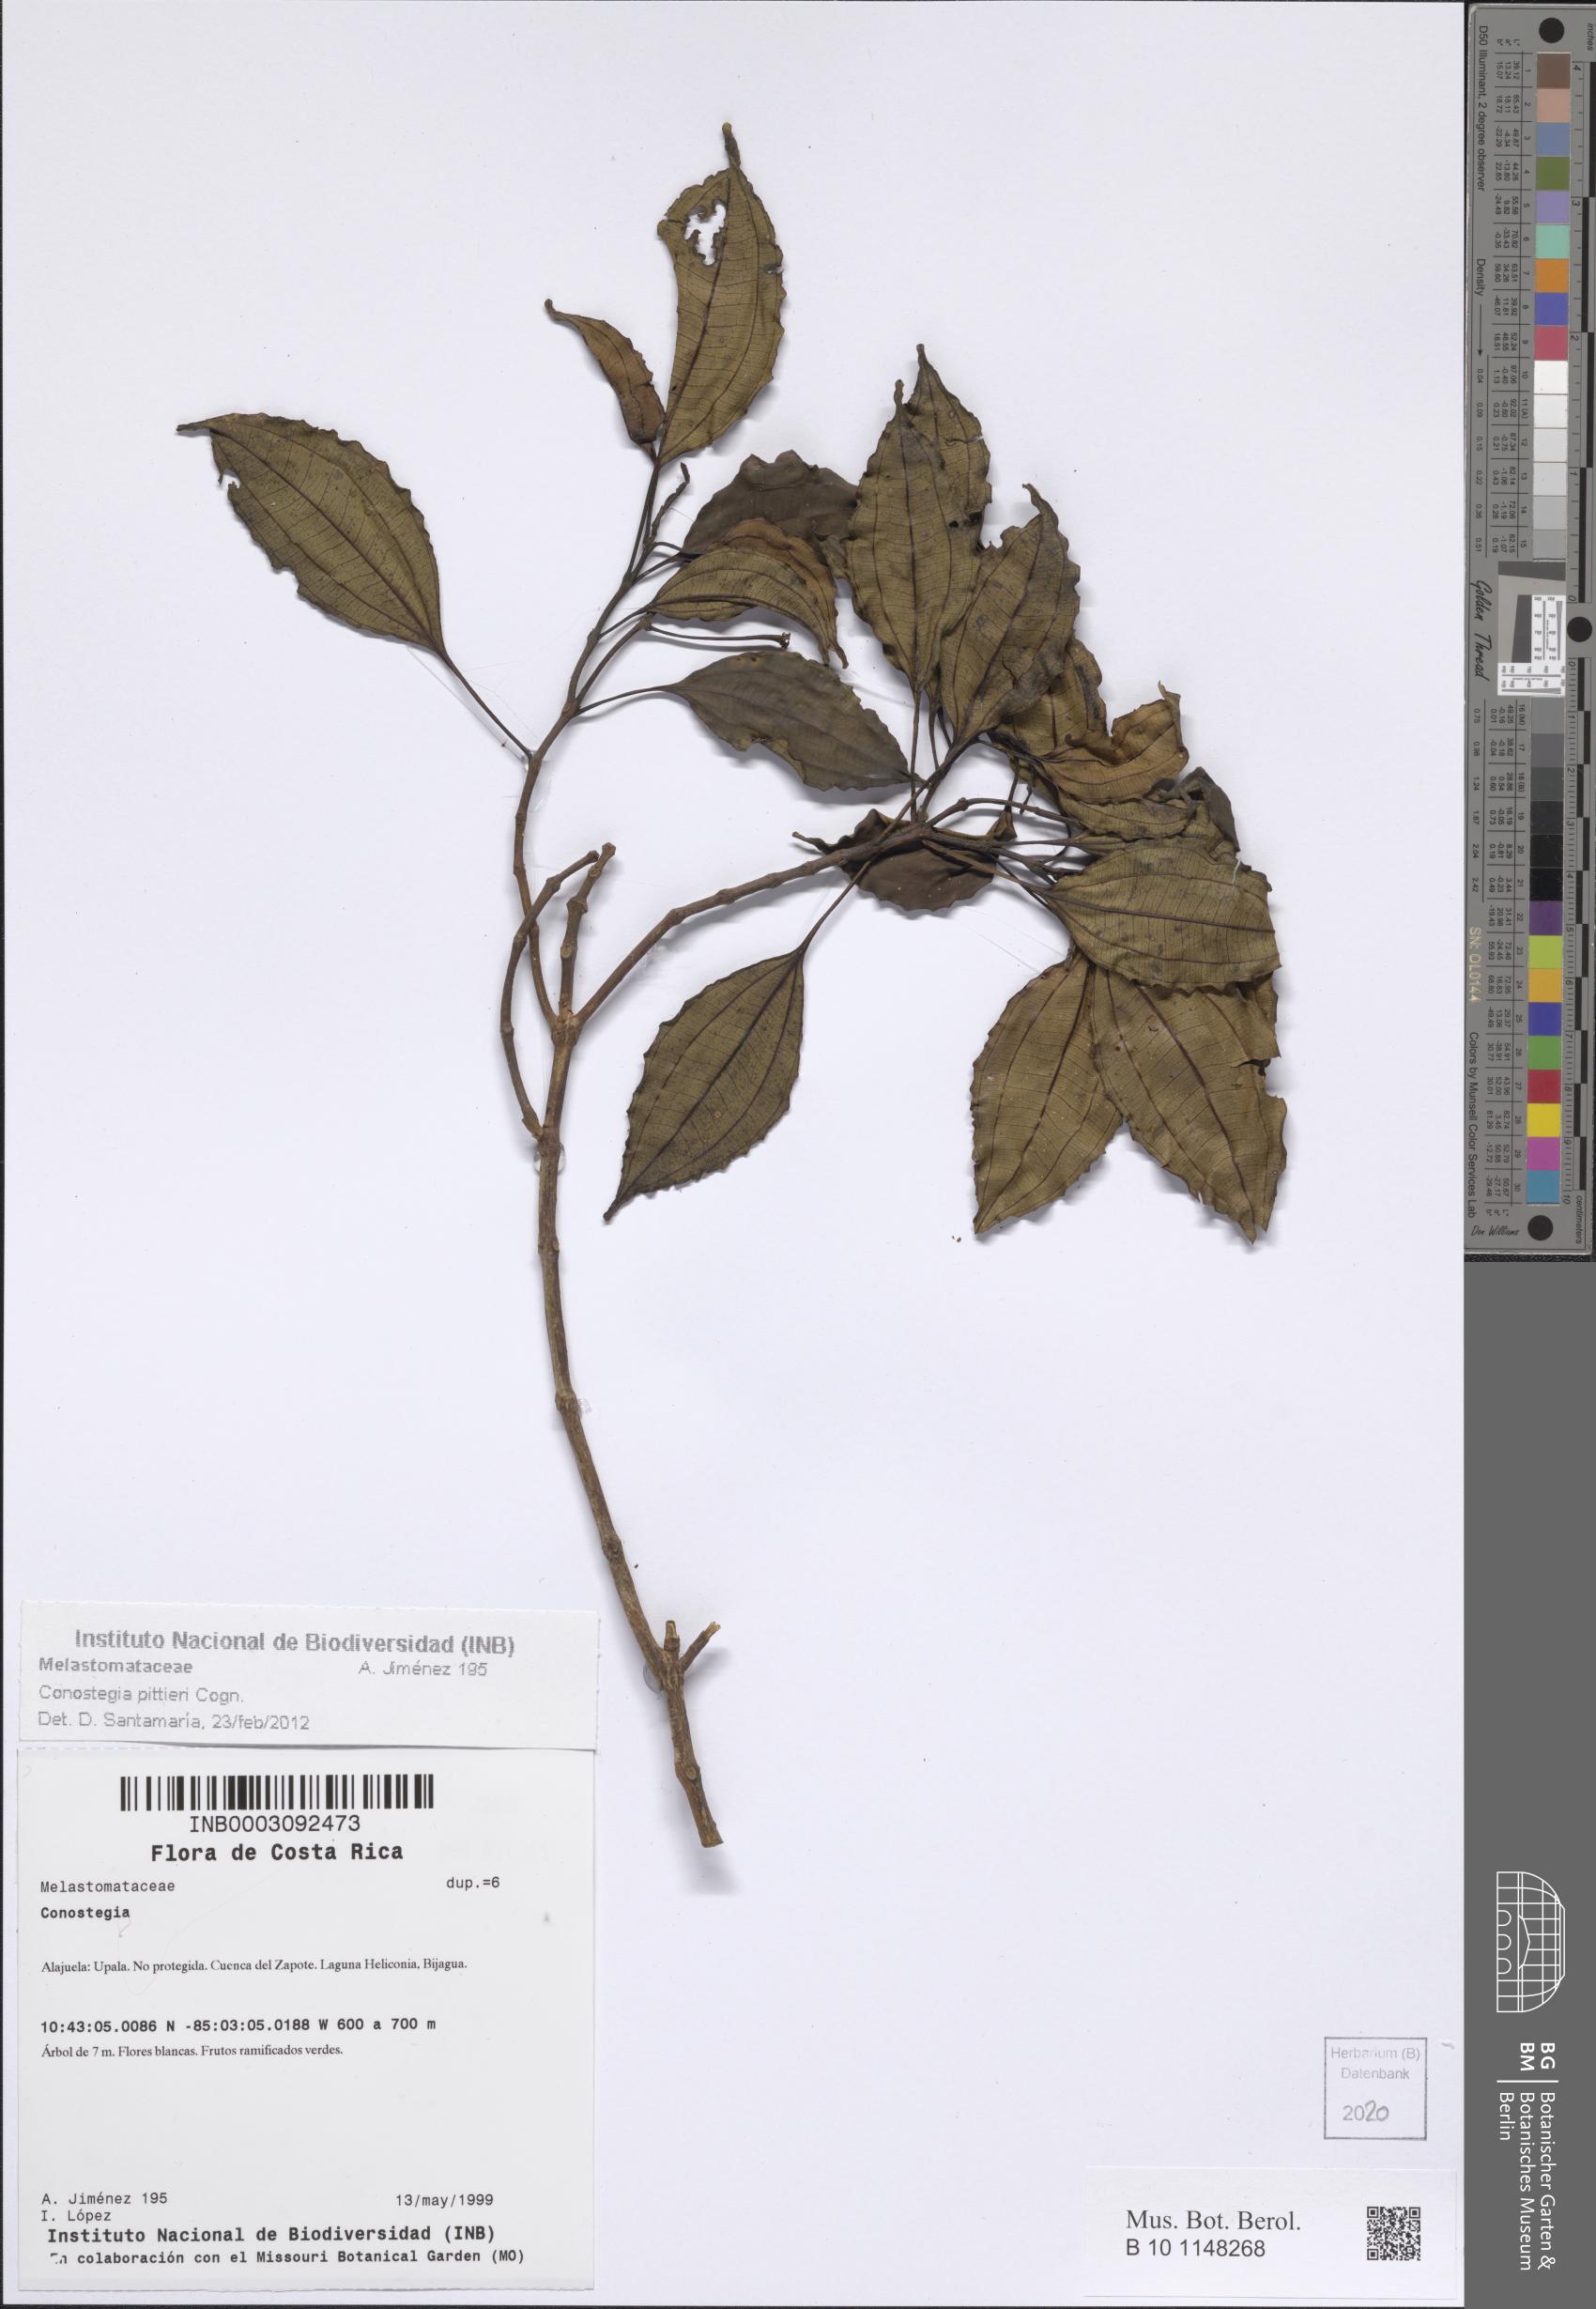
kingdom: Plantae
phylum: Tracheophyta
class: Magnoliopsida
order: Myrtales
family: Melastomataceae
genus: Miconia
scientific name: Miconia durandii
